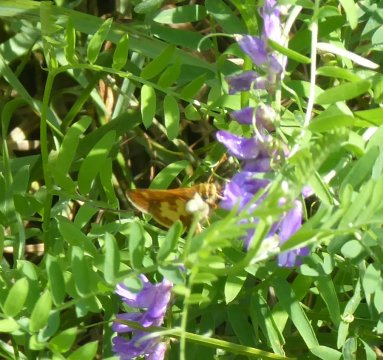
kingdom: Animalia
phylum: Arthropoda
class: Insecta
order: Lepidoptera
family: Hesperiidae
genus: Polites
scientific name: Polites coras
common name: Peck's Skipper
